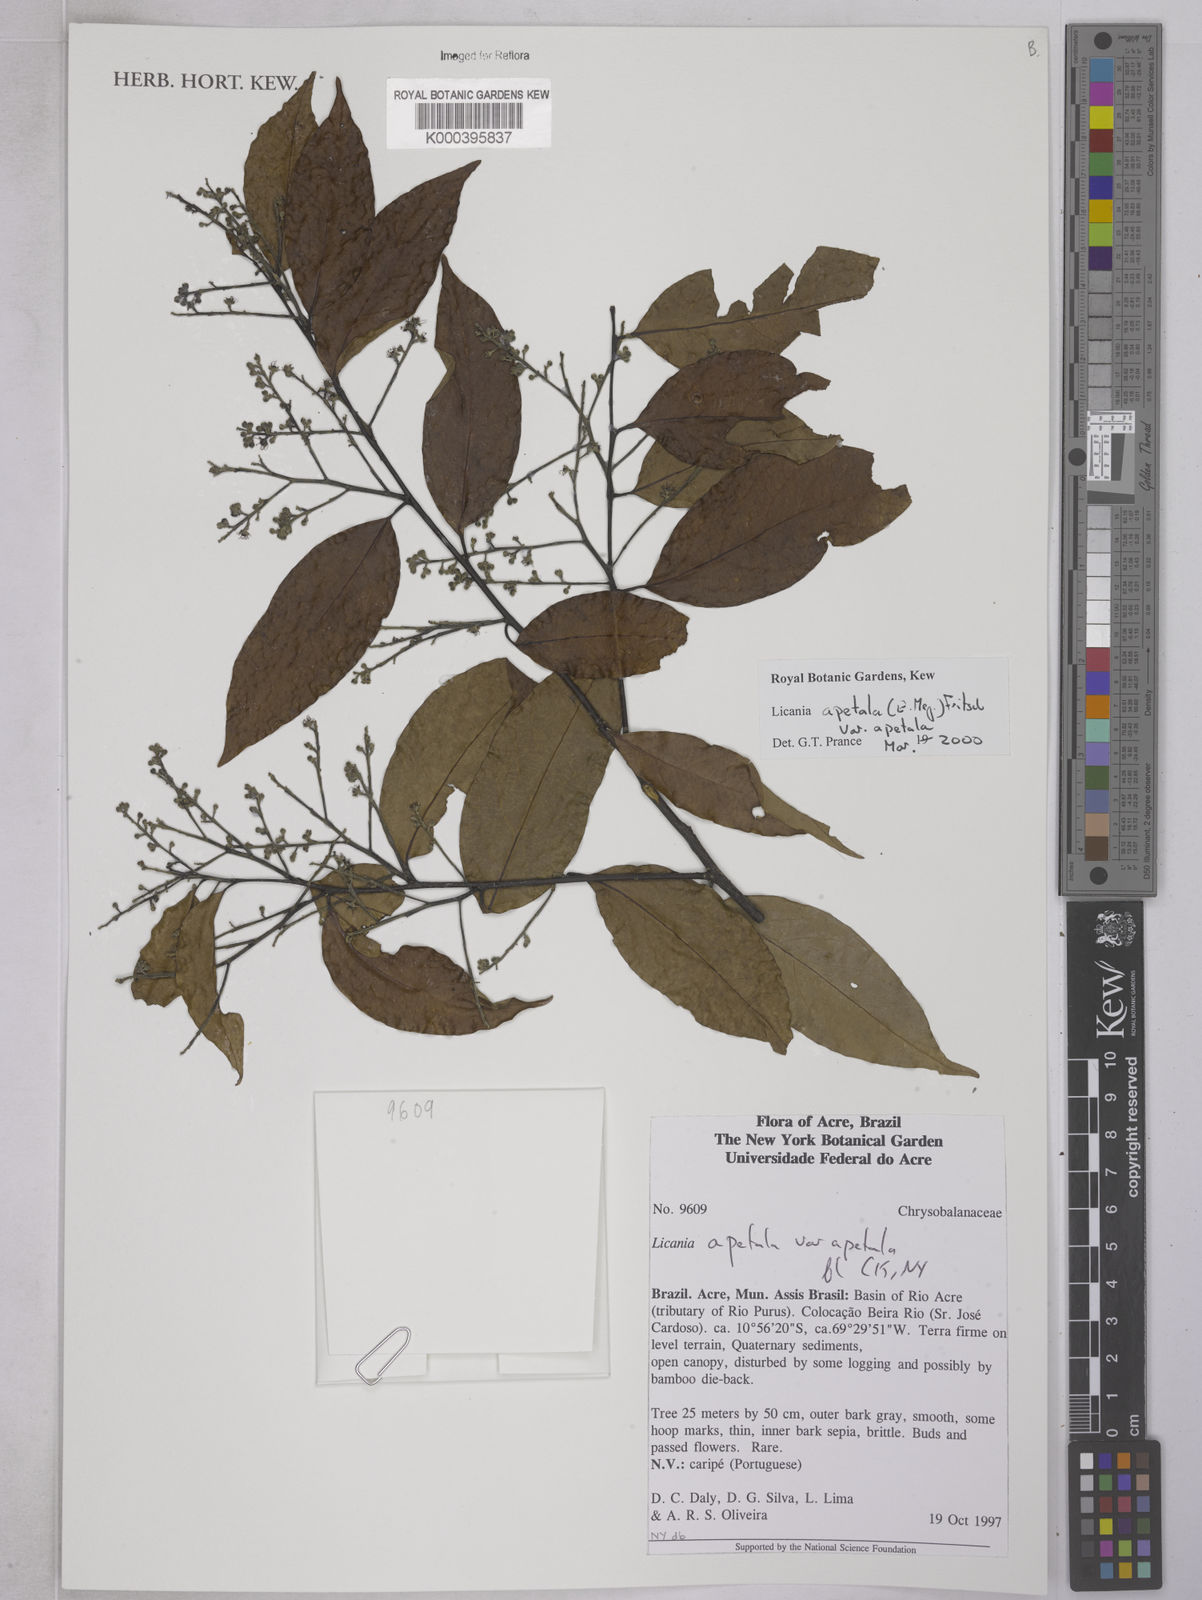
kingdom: Plantae
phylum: Tracheophyta
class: Magnoliopsida
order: Malpighiales
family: Chrysobalanaceae
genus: Leptobalanus
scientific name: Leptobalanus apetalus
